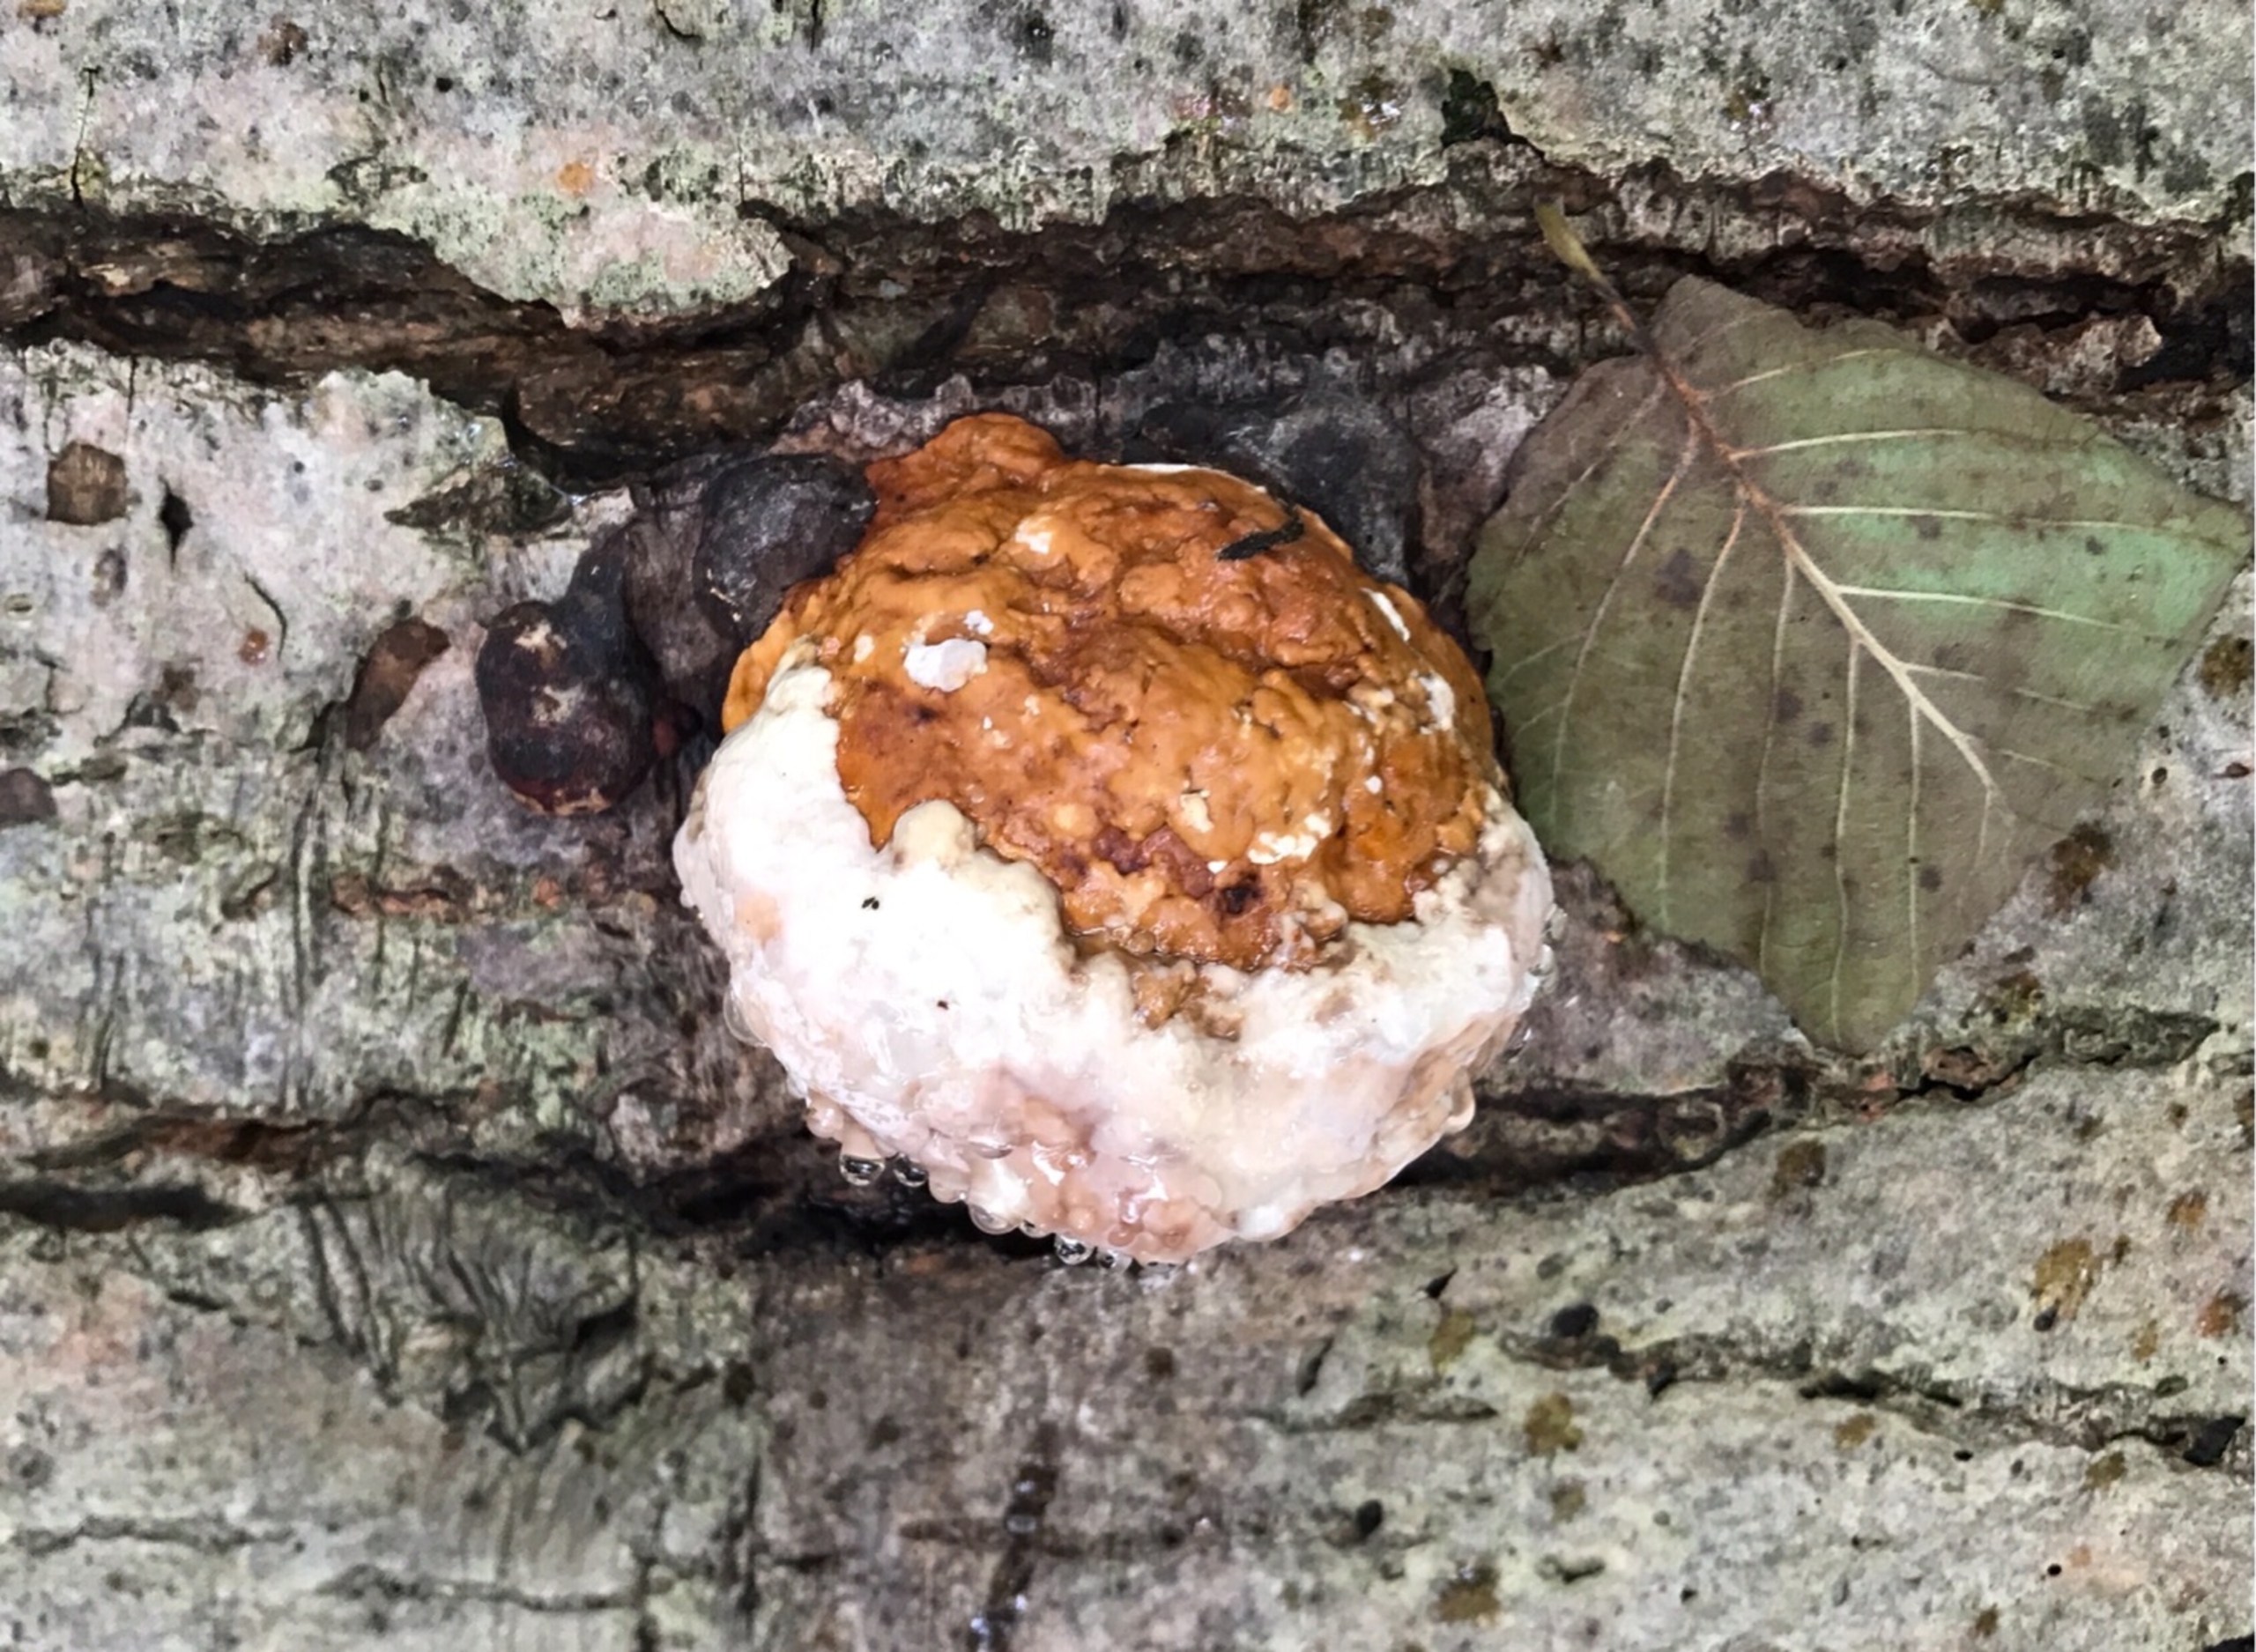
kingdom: Fungi
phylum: Basidiomycota
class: Agaricomycetes
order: Polyporales
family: Fomitopsidaceae
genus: Fomitopsis
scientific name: Fomitopsis pinicola
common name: Randbæltet hovporesvamp
